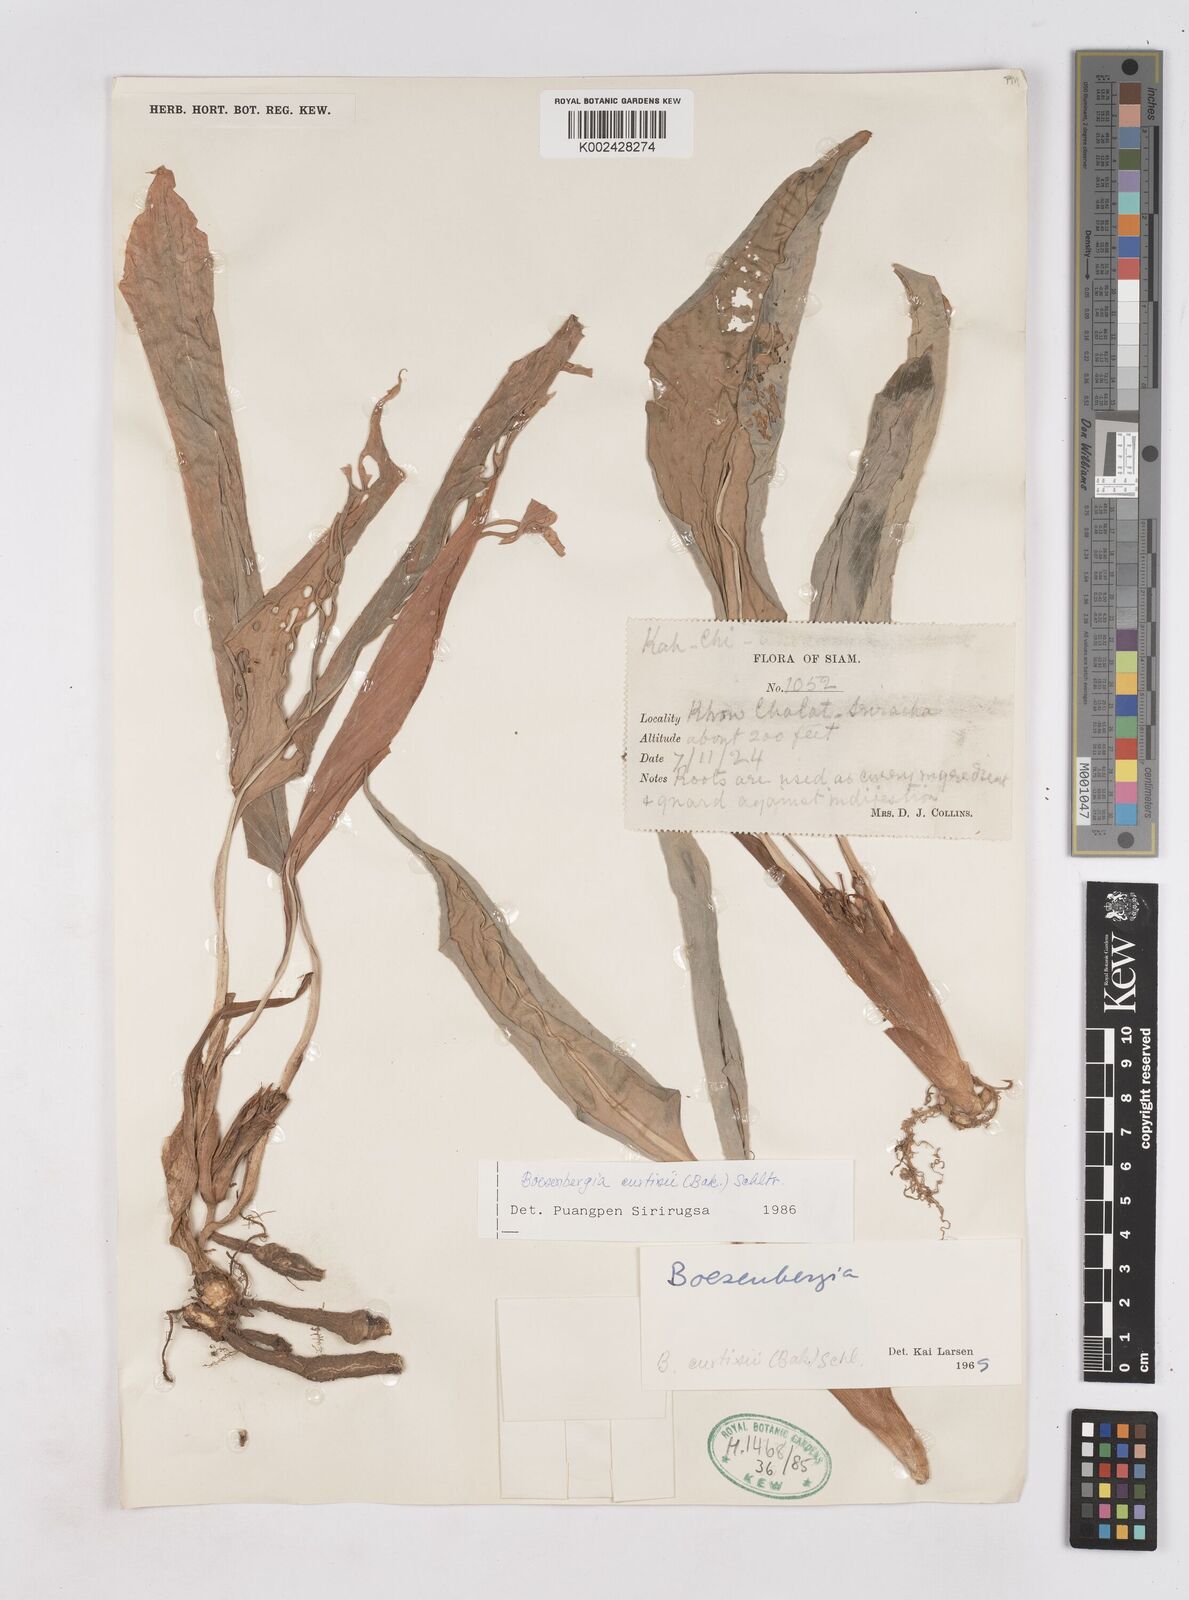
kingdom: Plantae
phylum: Tracheophyta
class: Liliopsida
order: Zingiberales
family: Zingiberaceae
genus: Boesenbergia
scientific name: Boesenbergia curtisii
